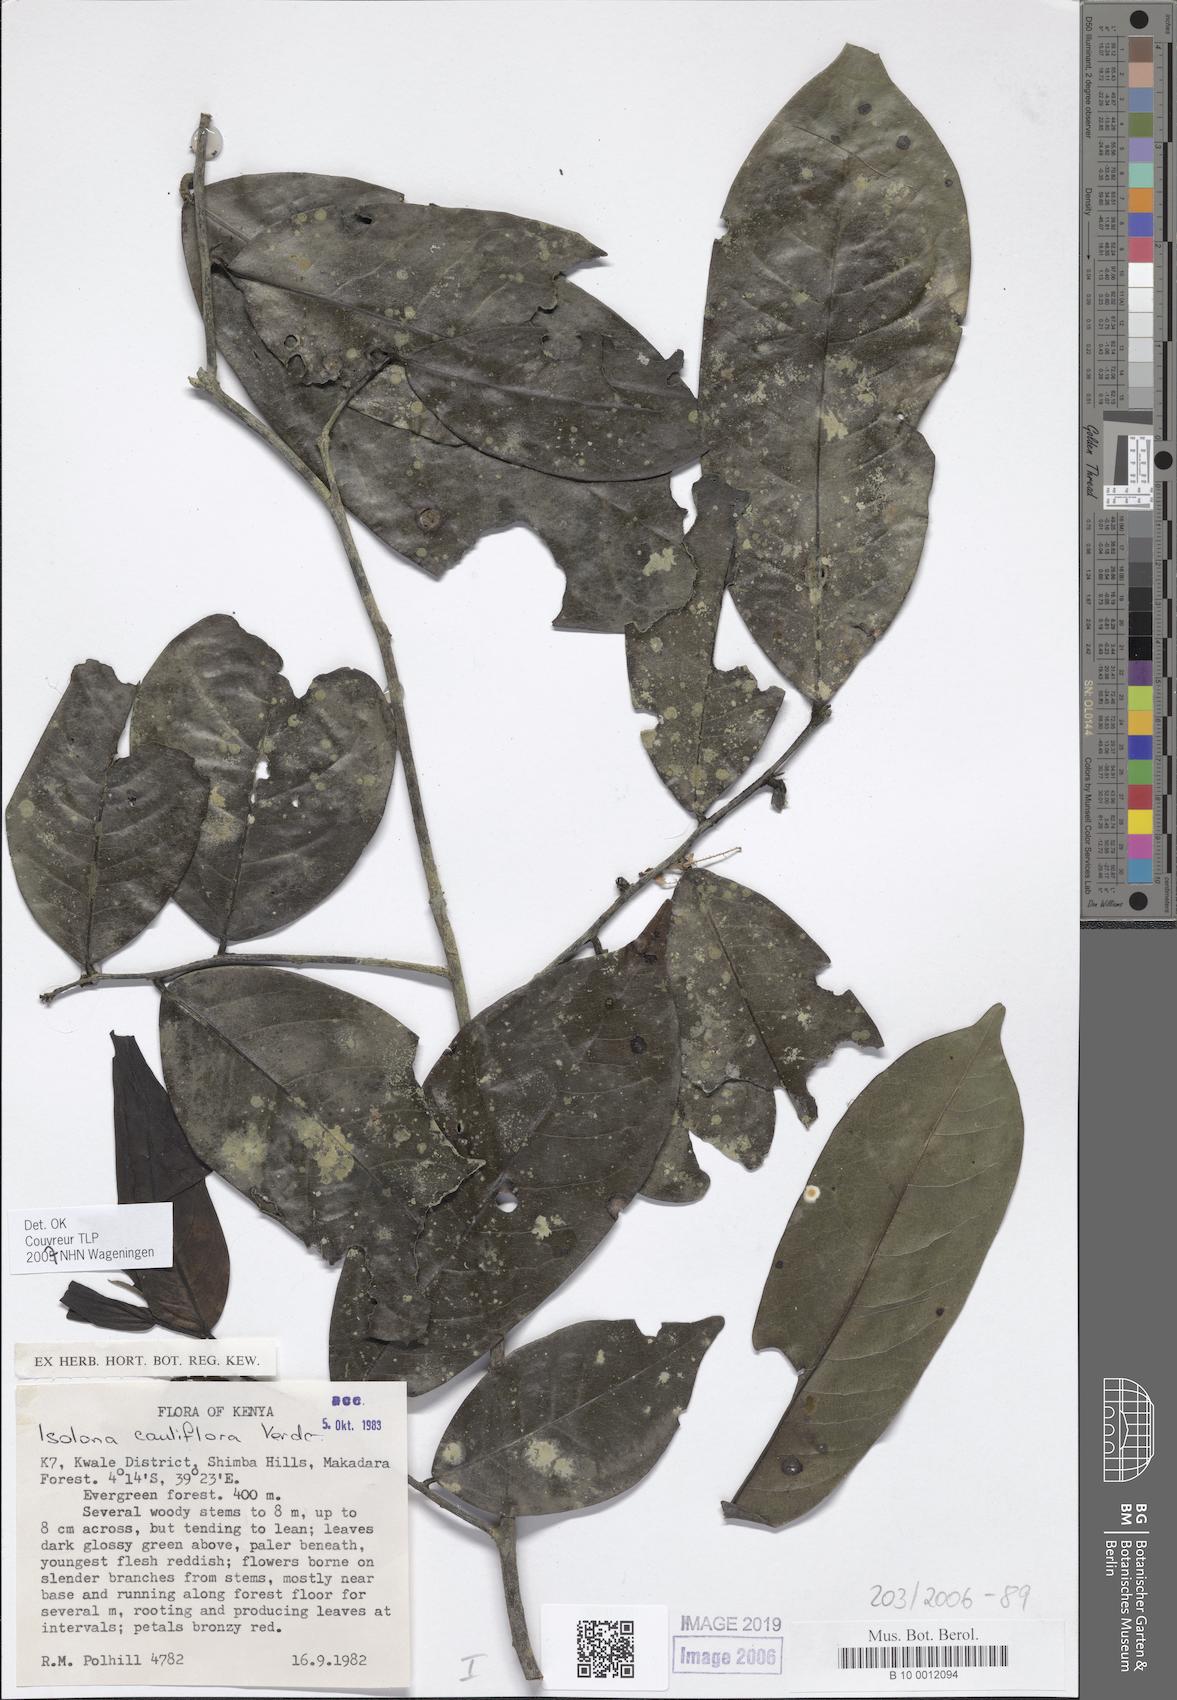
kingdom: Plantae
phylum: Tracheophyta
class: Magnoliopsida
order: Magnoliales
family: Annonaceae
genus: Isolona
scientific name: Isolona cauliflora
